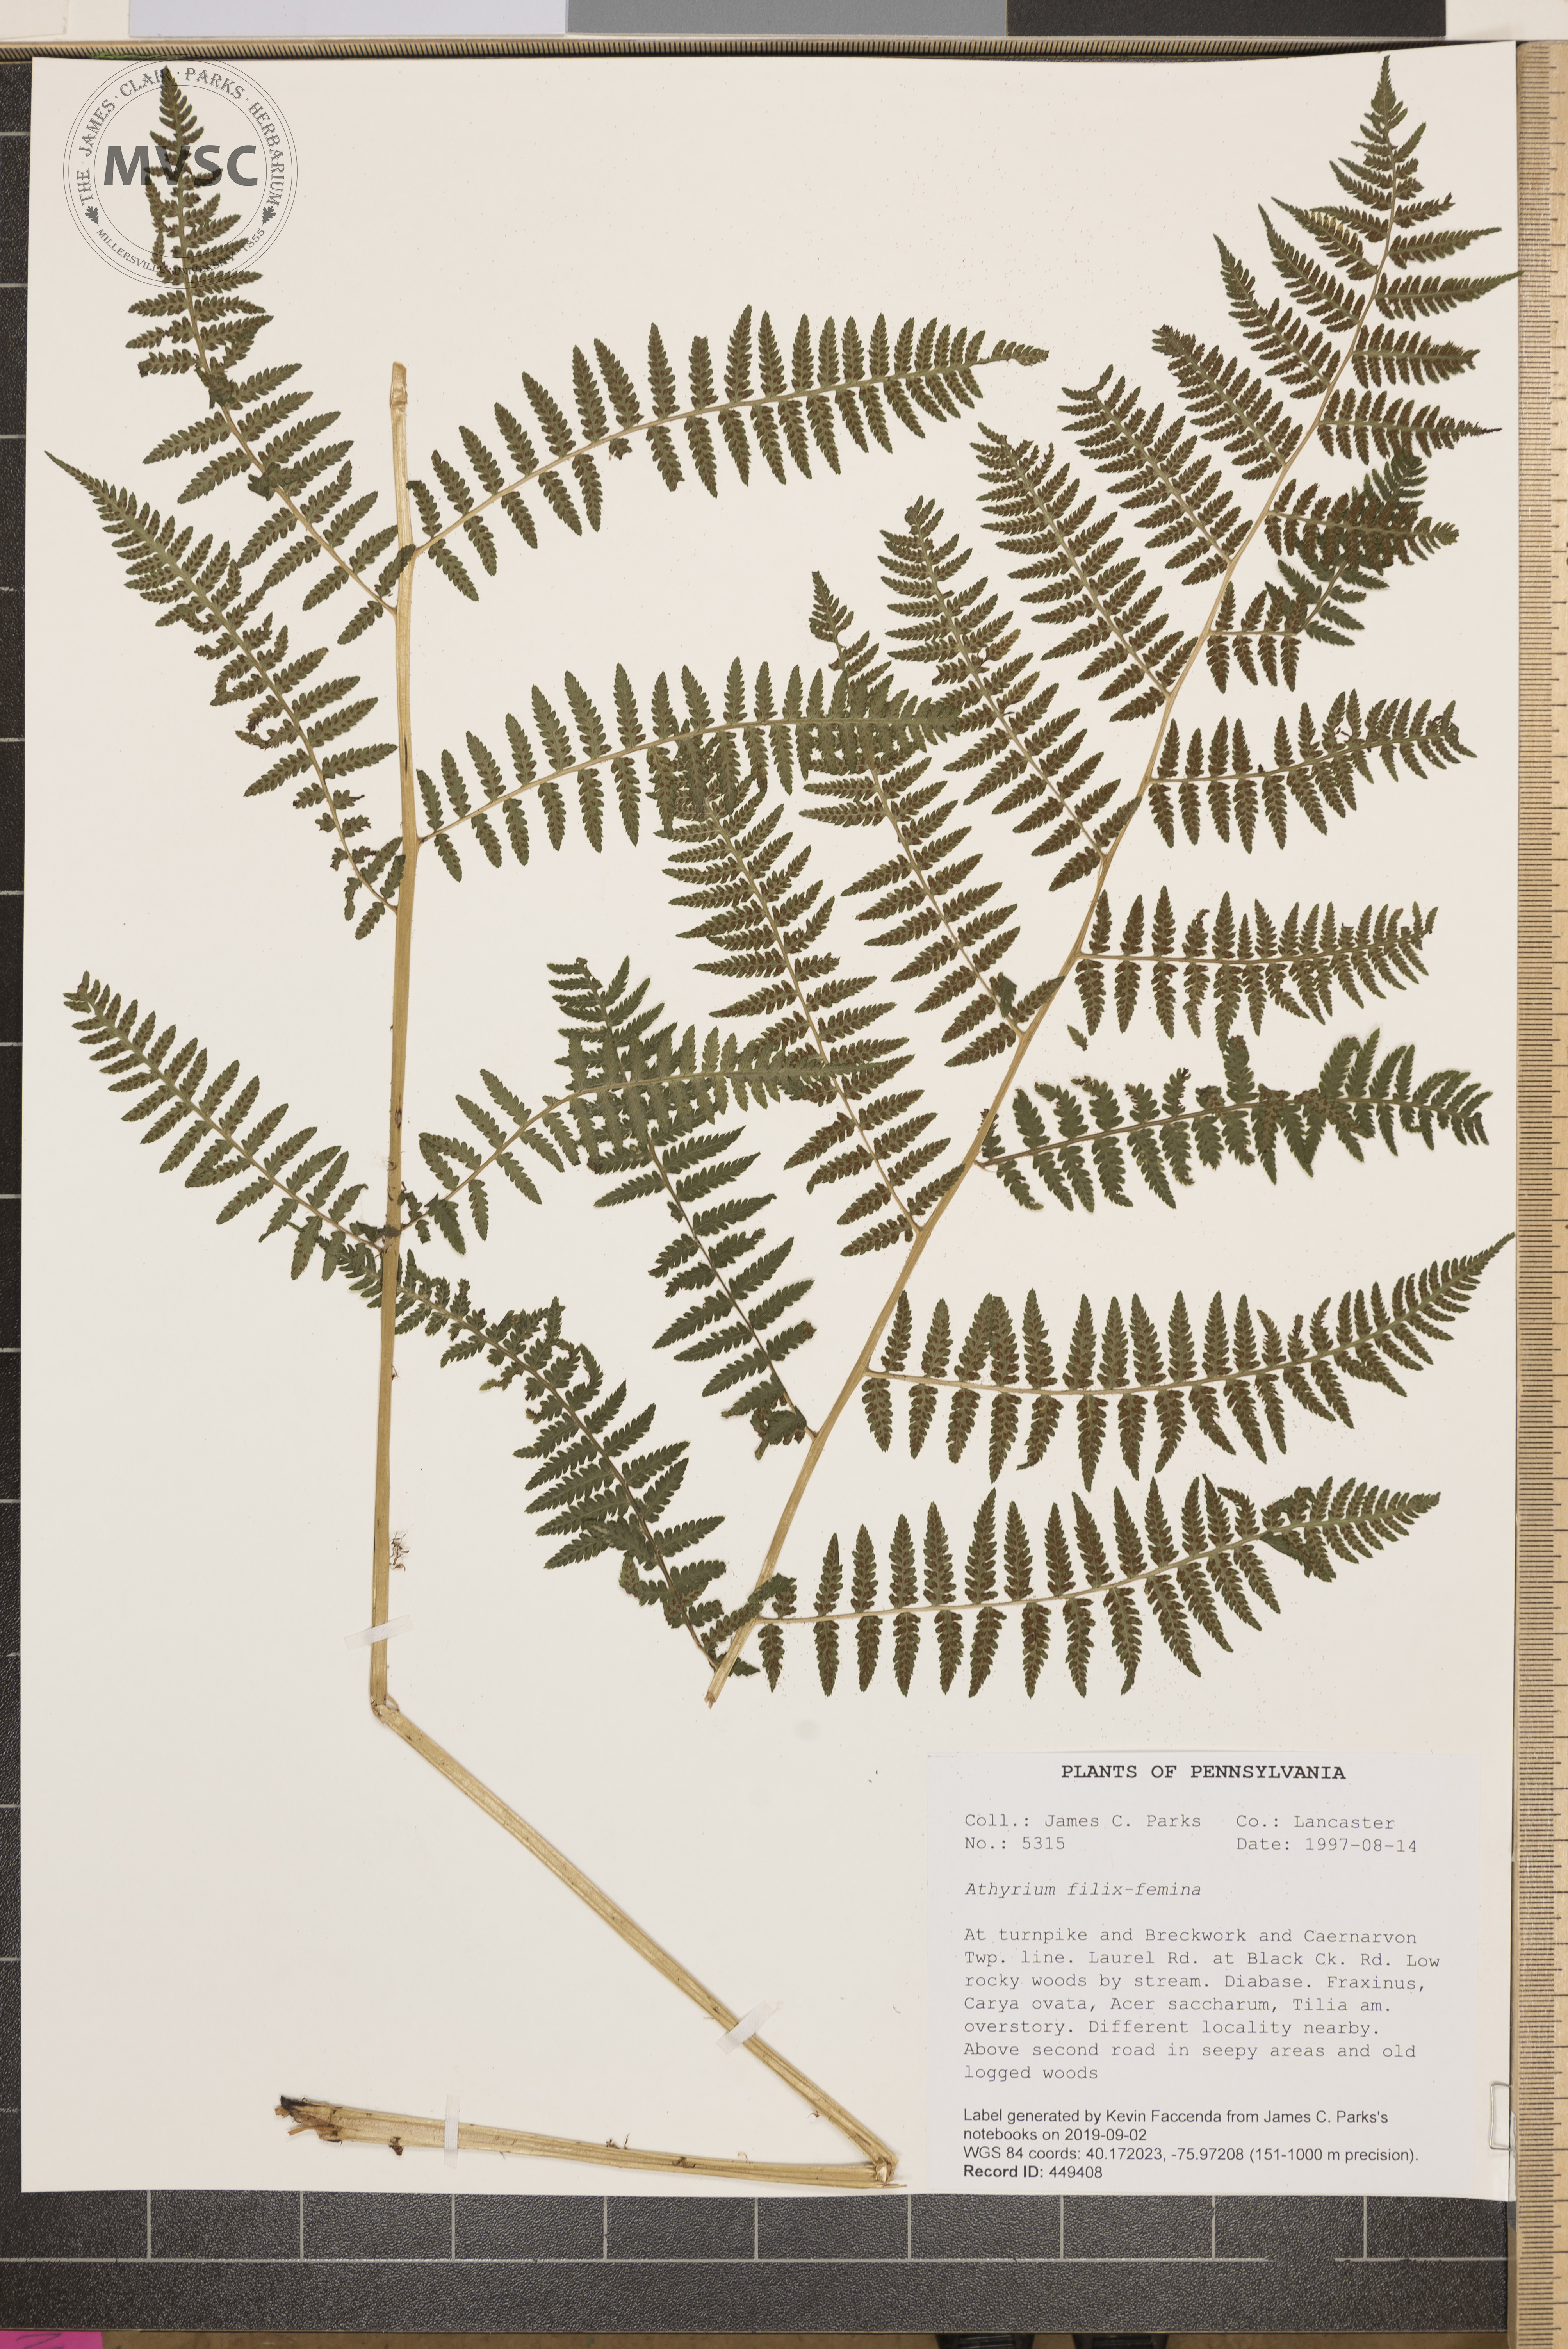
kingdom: Plantae
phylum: Tracheophyta
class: Polypodiopsida
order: Polypodiales
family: Athyriaceae
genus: Athyrium
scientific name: Athyrium filix-femina
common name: Lady fern
